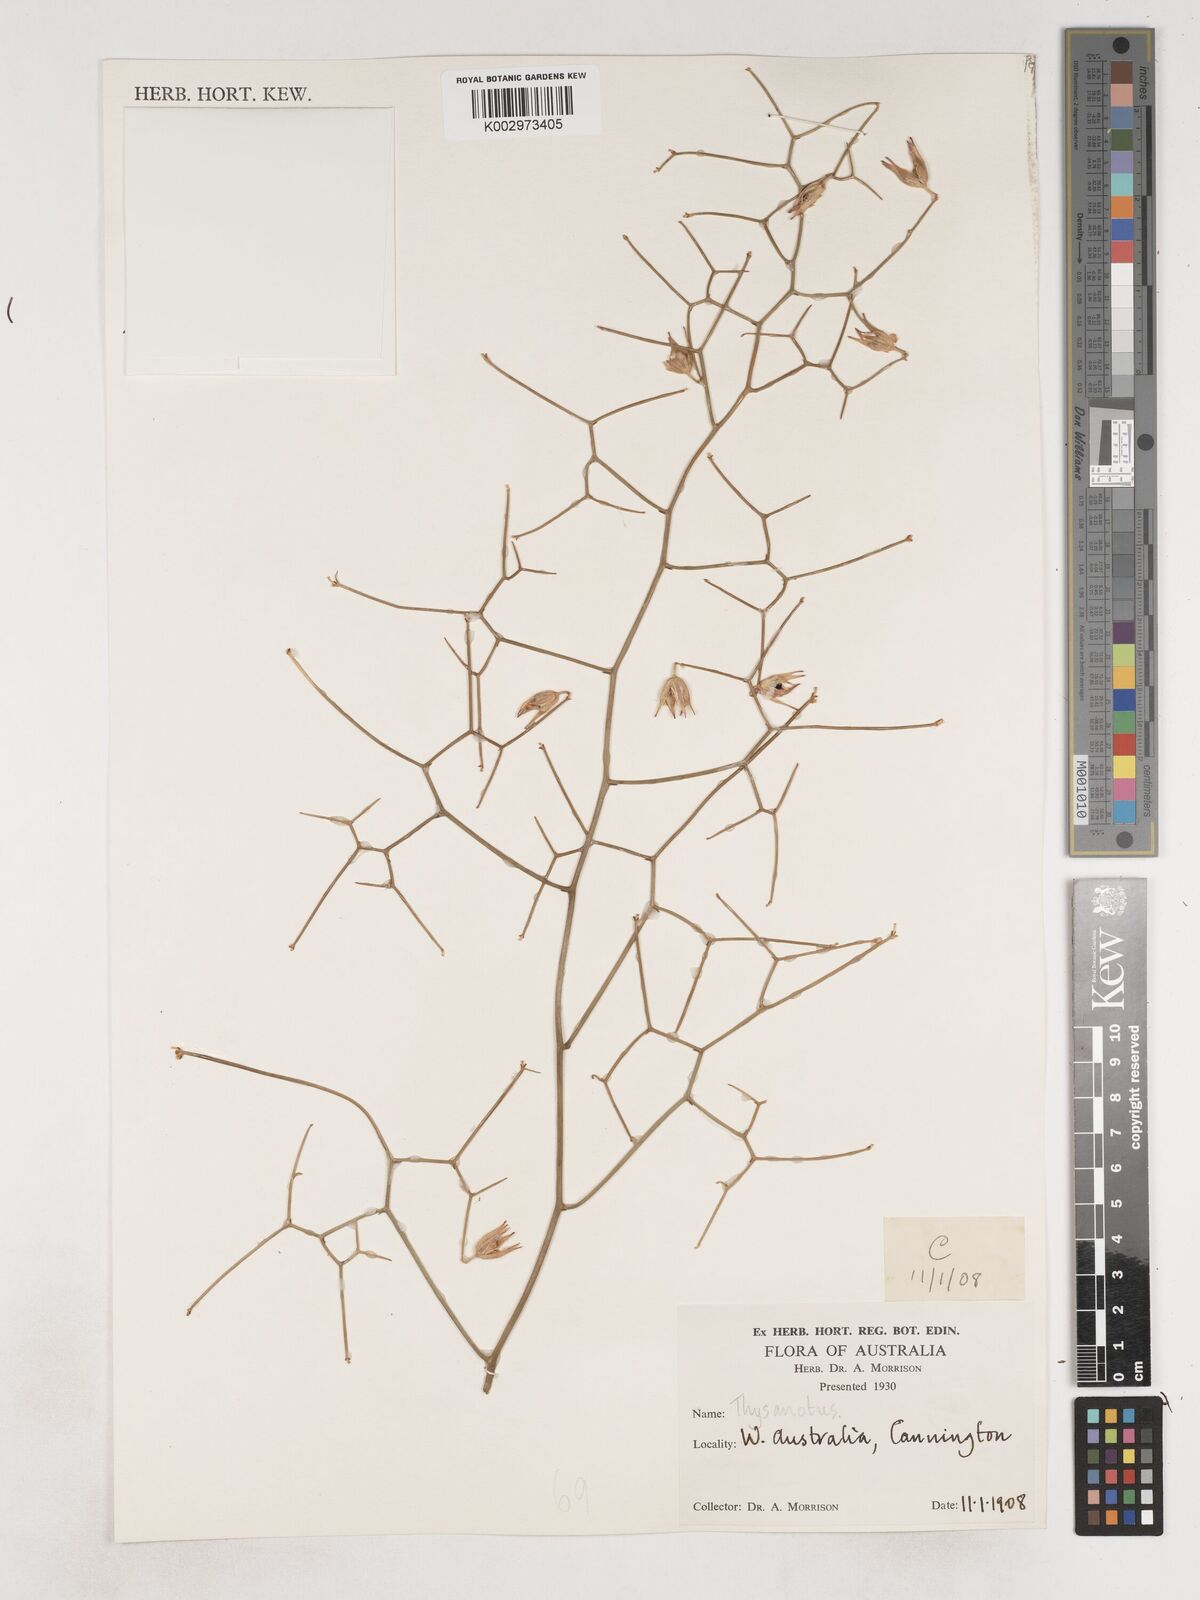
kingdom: Plantae
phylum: Tracheophyta
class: Liliopsida
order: Asparagales
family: Asparagaceae
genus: Thysanotus
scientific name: Thysanotus
